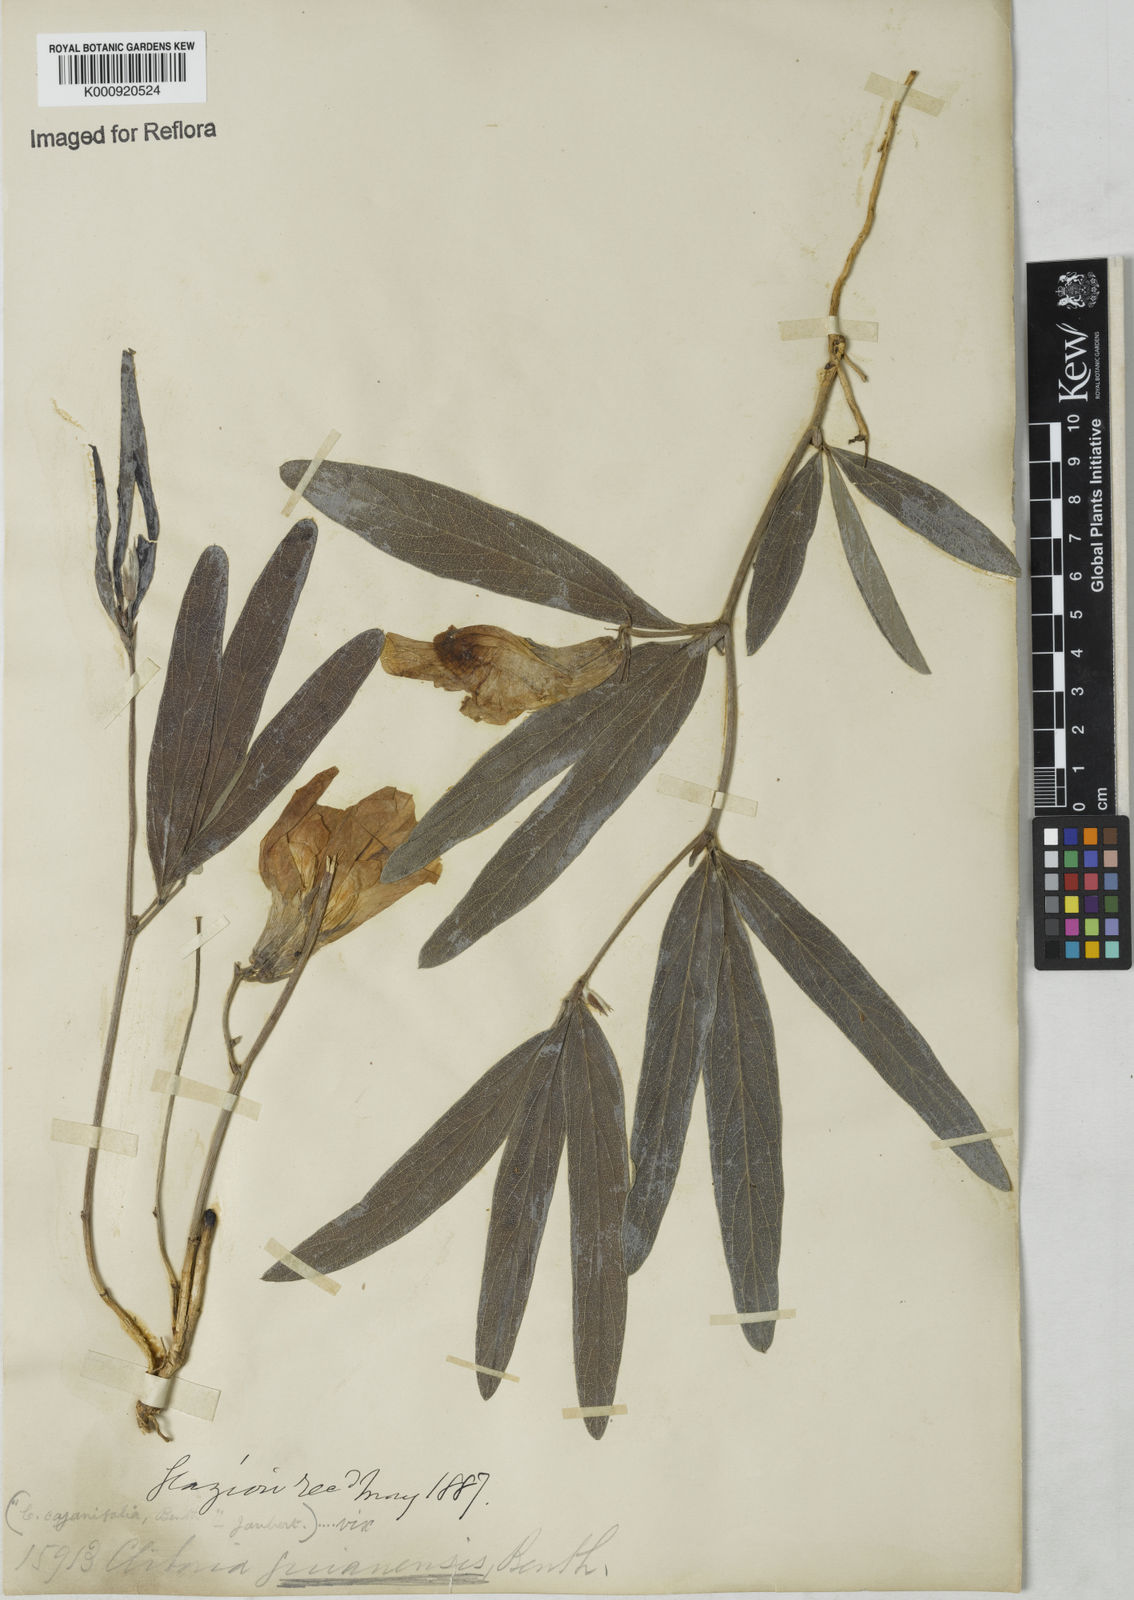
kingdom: Plantae
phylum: Tracheophyta
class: Magnoliopsida
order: Fabales
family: Fabaceae
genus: Clitoria
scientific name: Clitoria guianensis
